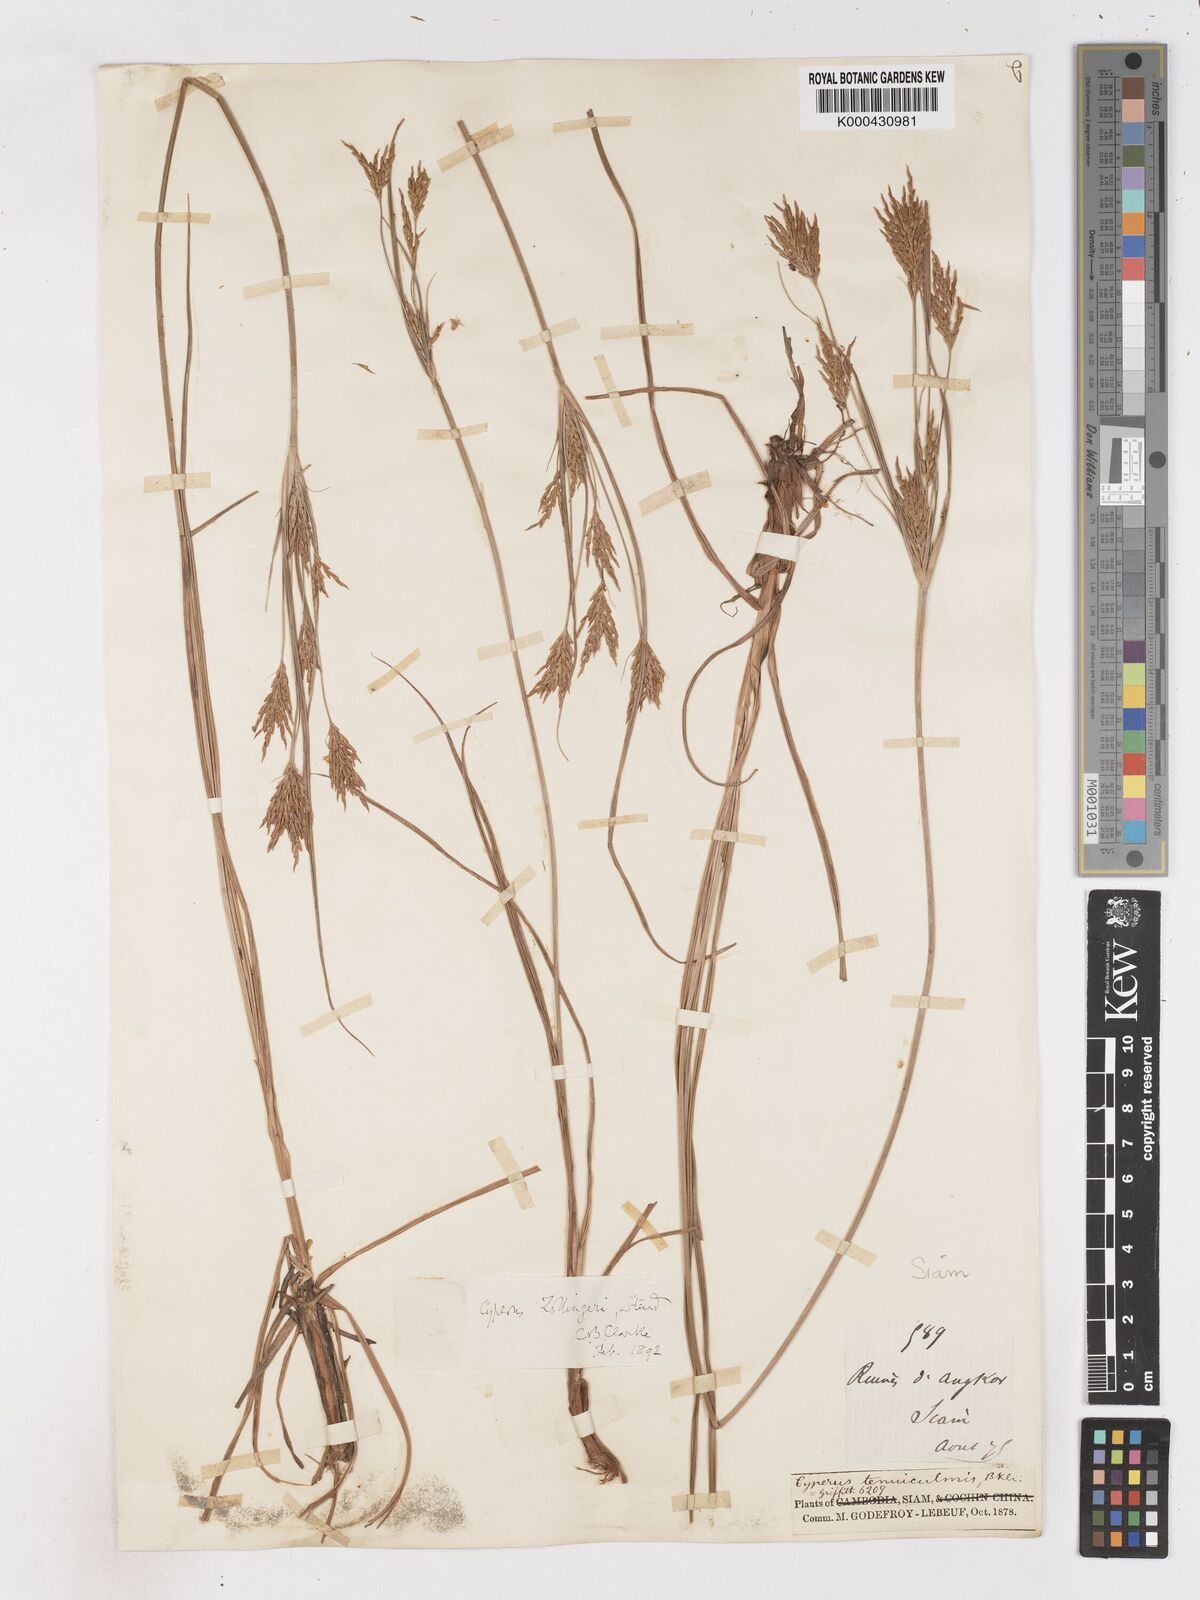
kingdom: Plantae
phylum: Tracheophyta
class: Liliopsida
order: Poales
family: Cyperaceae
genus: Cyperus
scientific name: Cyperus tenuiculmis
